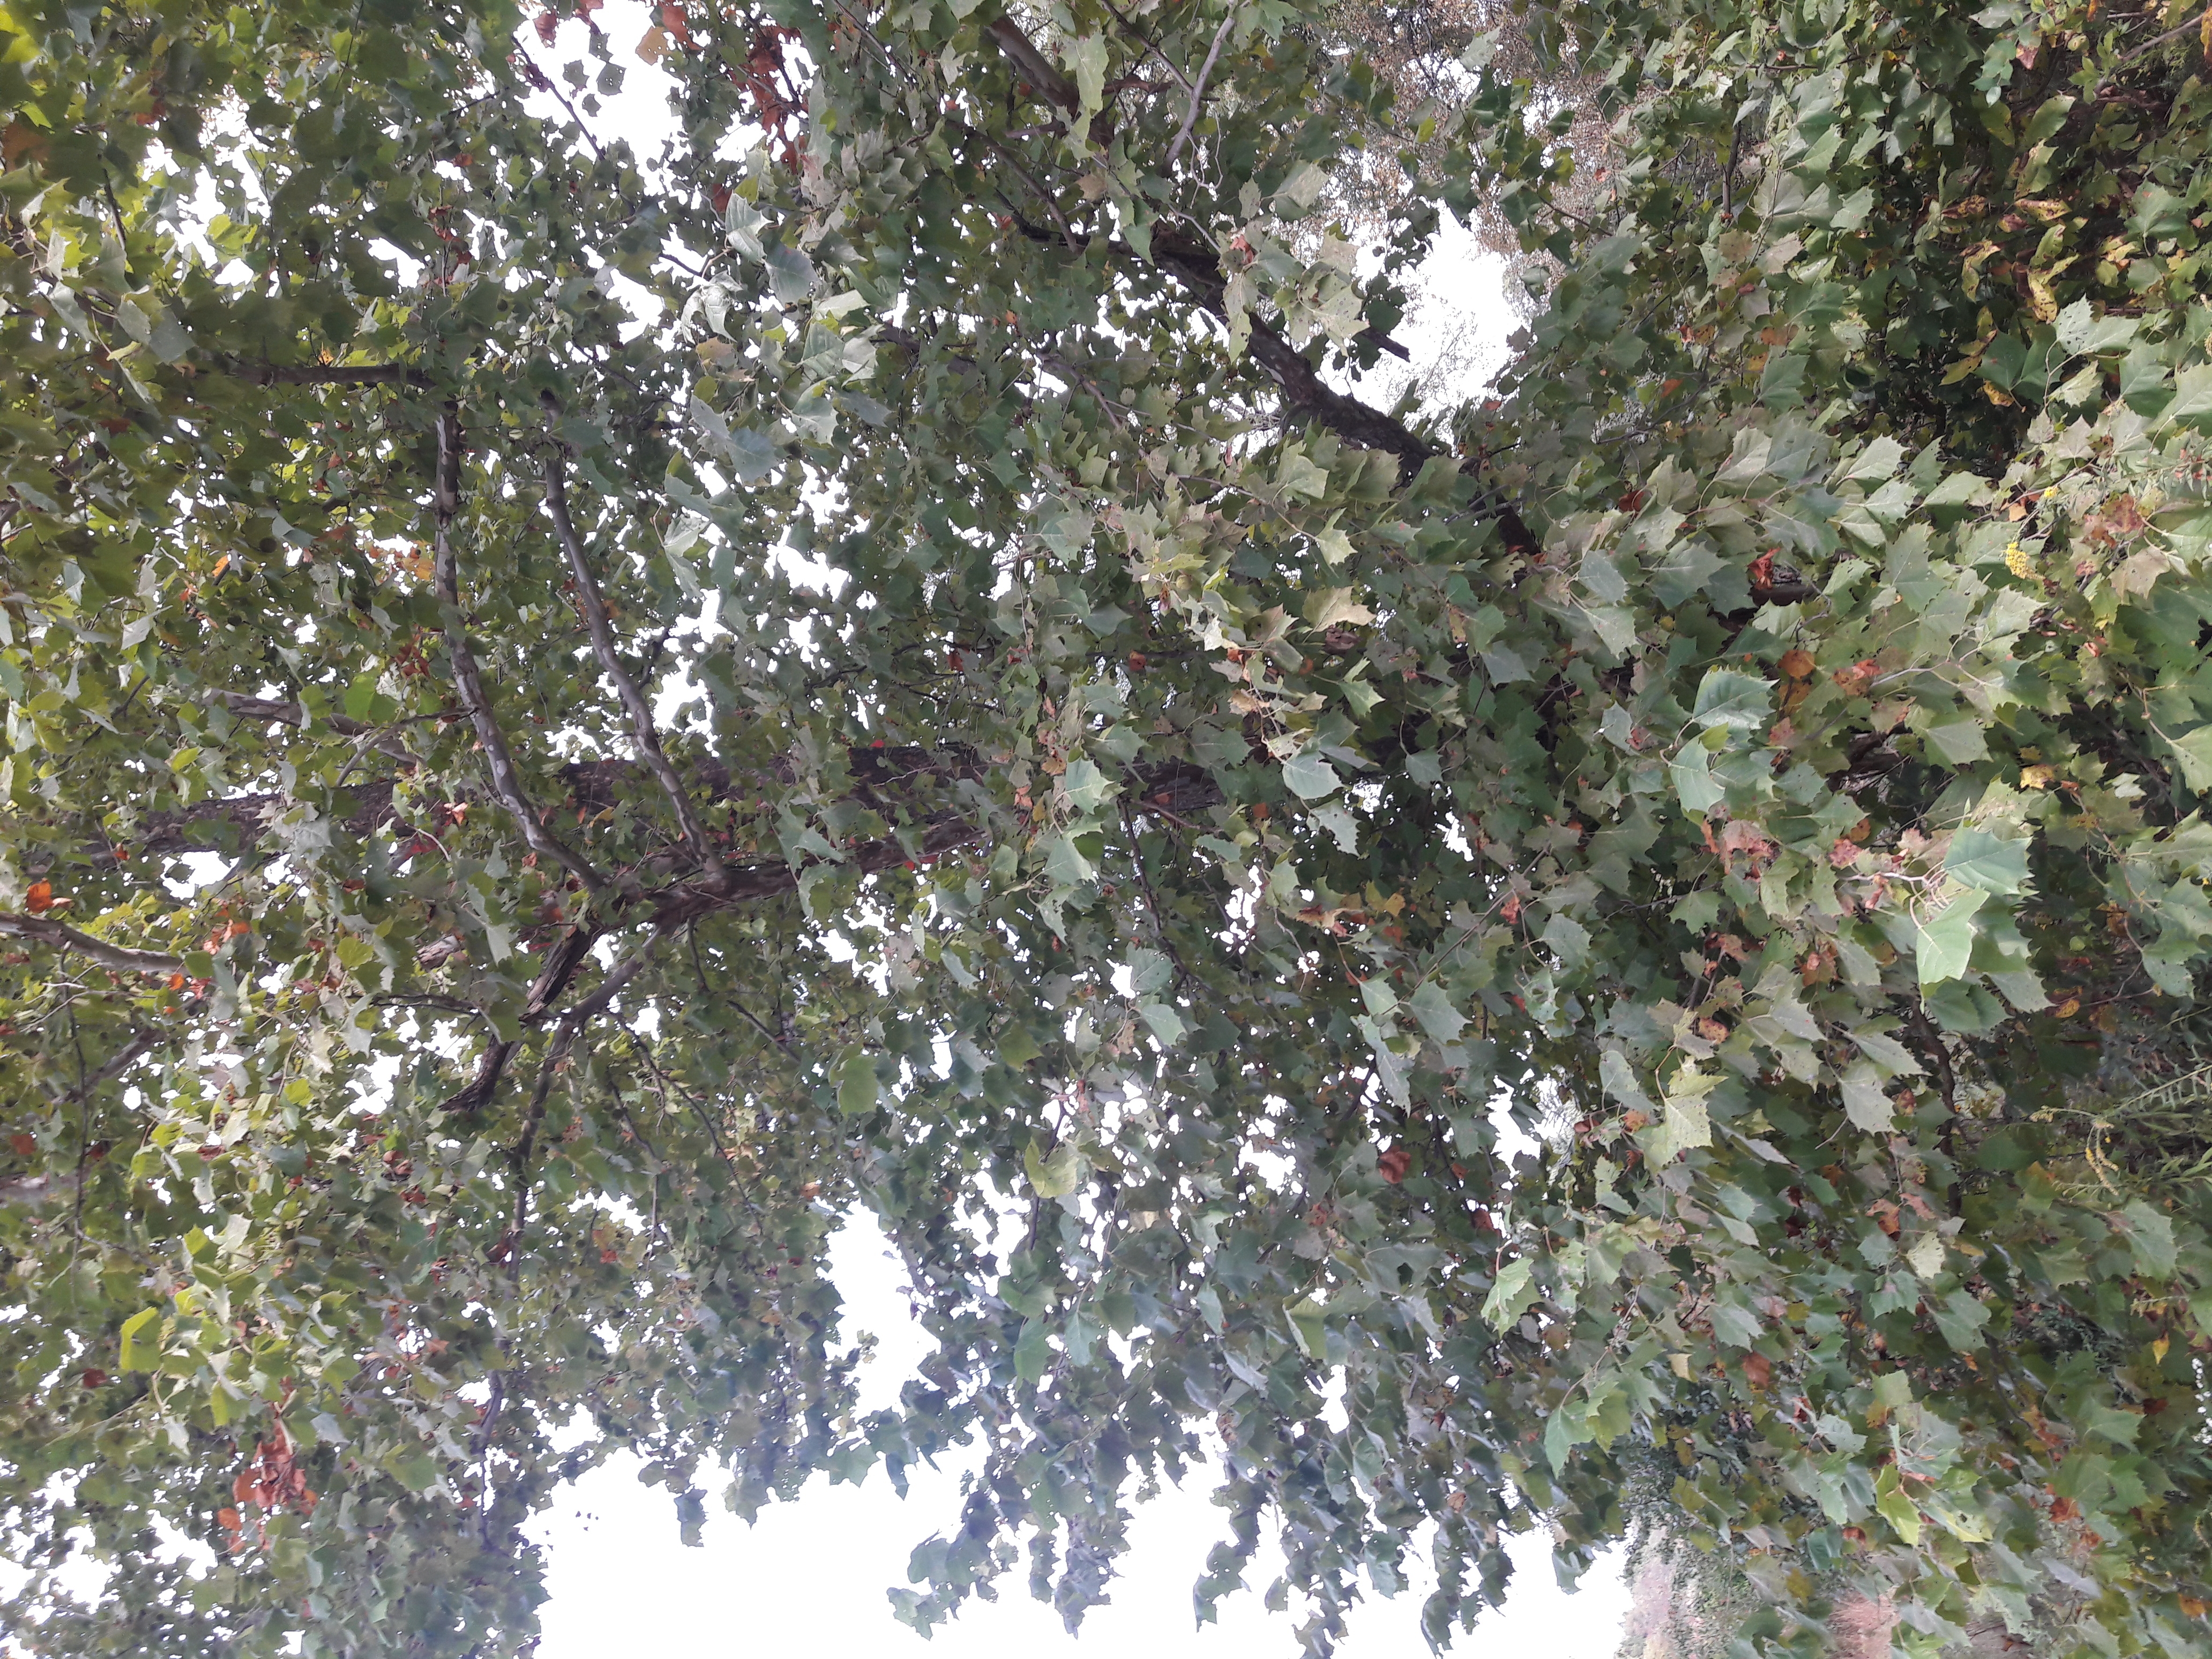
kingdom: Plantae
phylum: Tracheophyta
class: Magnoliopsida
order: Proteales
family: Platanaceae
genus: Platanus
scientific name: Platanus occidentalis
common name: Sycamore
